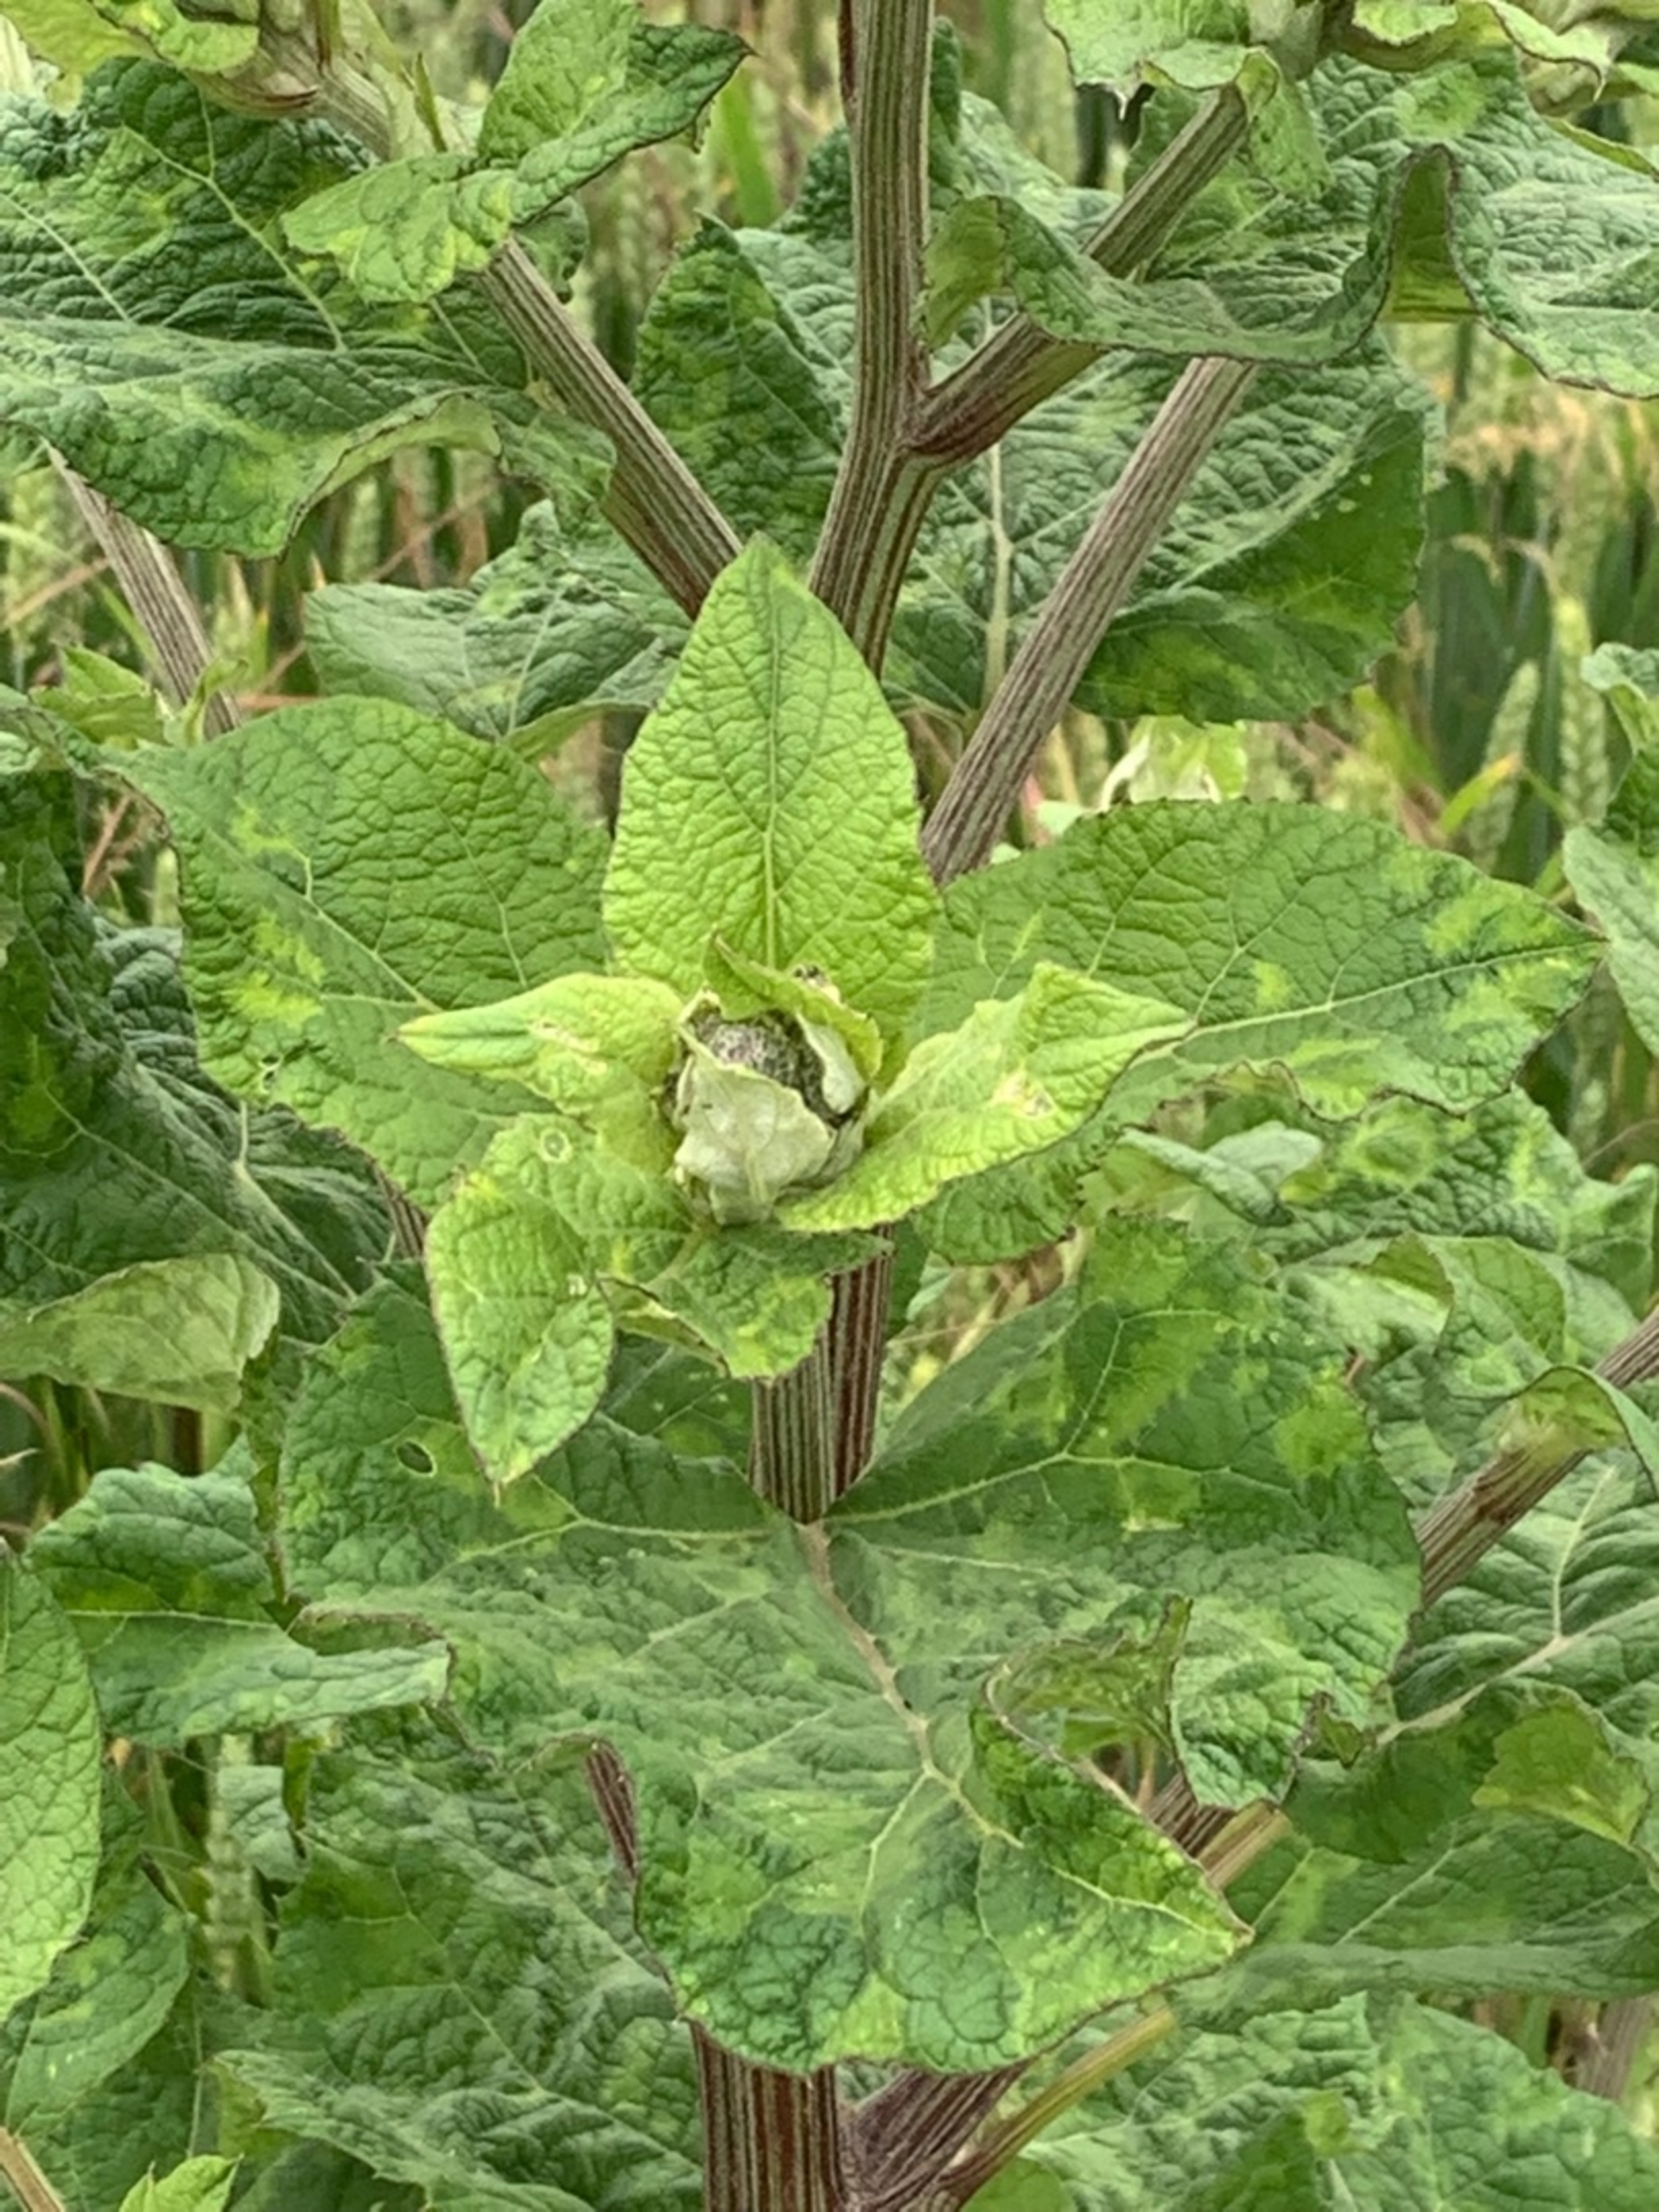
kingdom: Plantae
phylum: Tracheophyta
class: Magnoliopsida
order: Asterales
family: Asteraceae
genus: Arctium
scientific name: Arctium tomentosum
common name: Filtet burre
